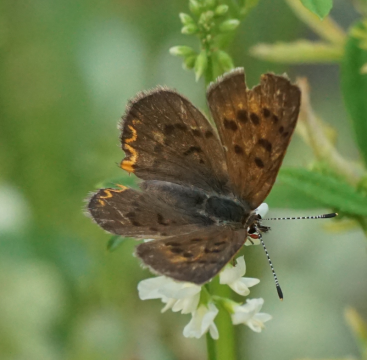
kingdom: Animalia
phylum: Arthropoda
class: Insecta
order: Lepidoptera
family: Lycaenidae
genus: Epidemia
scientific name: Epidemia dorcas
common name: Dorcas Copper
